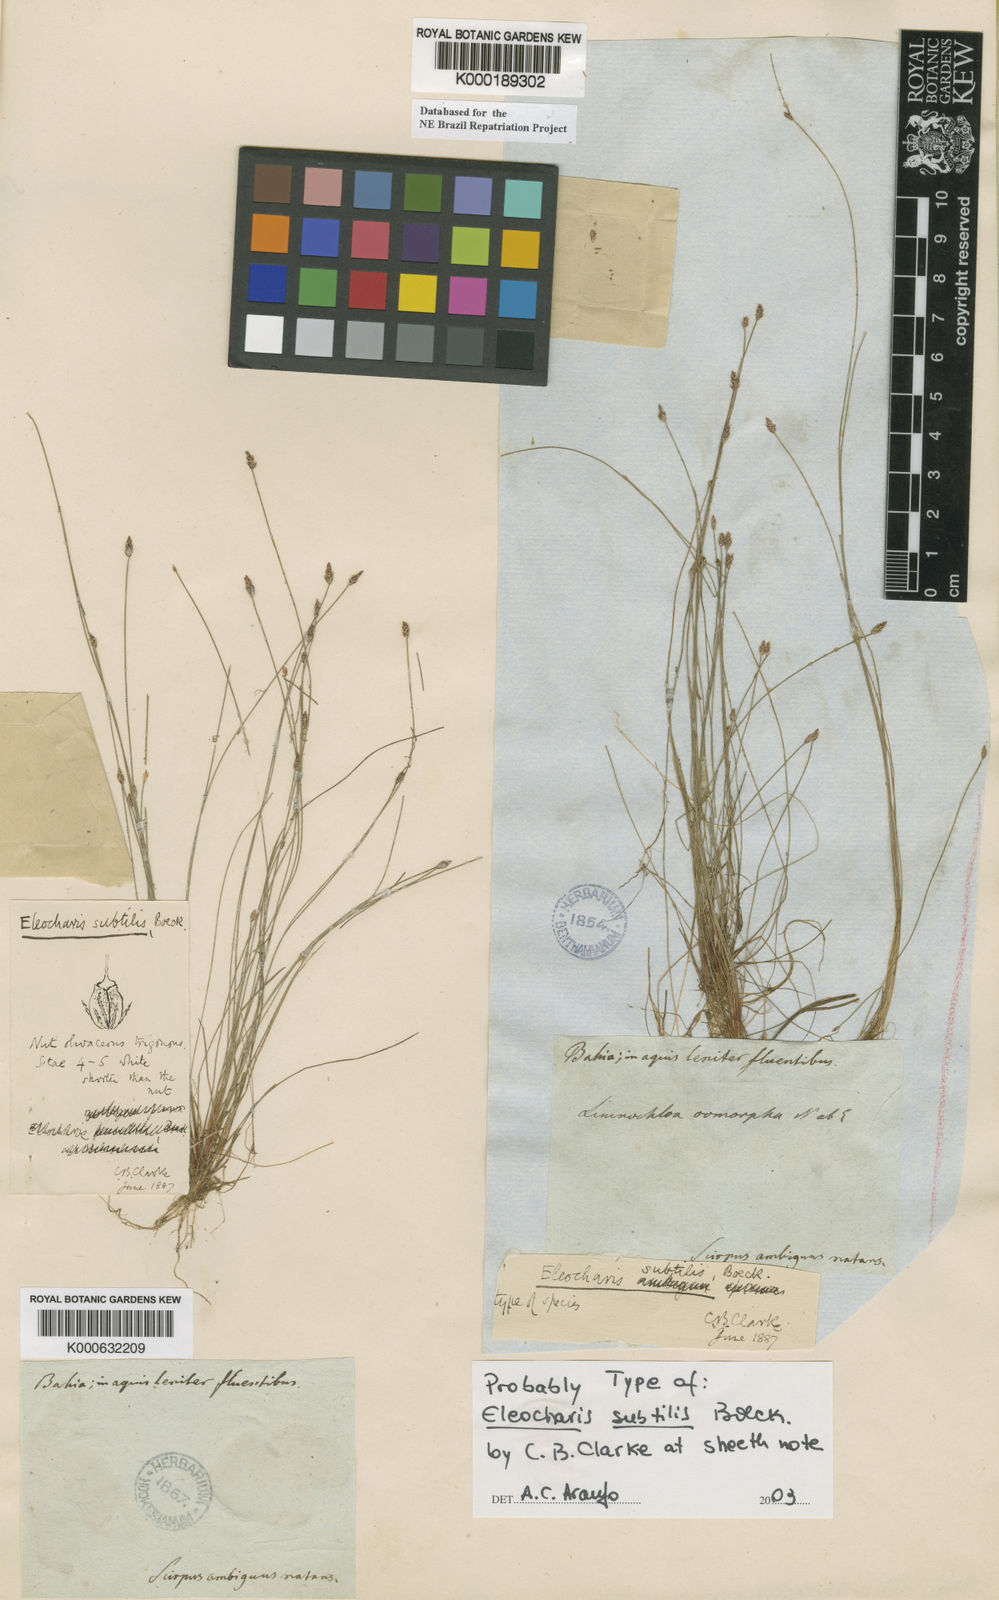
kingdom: Plantae
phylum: Tracheophyta
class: Liliopsida
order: Poales
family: Cyperaceae
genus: Eleocharis
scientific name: Eleocharis
